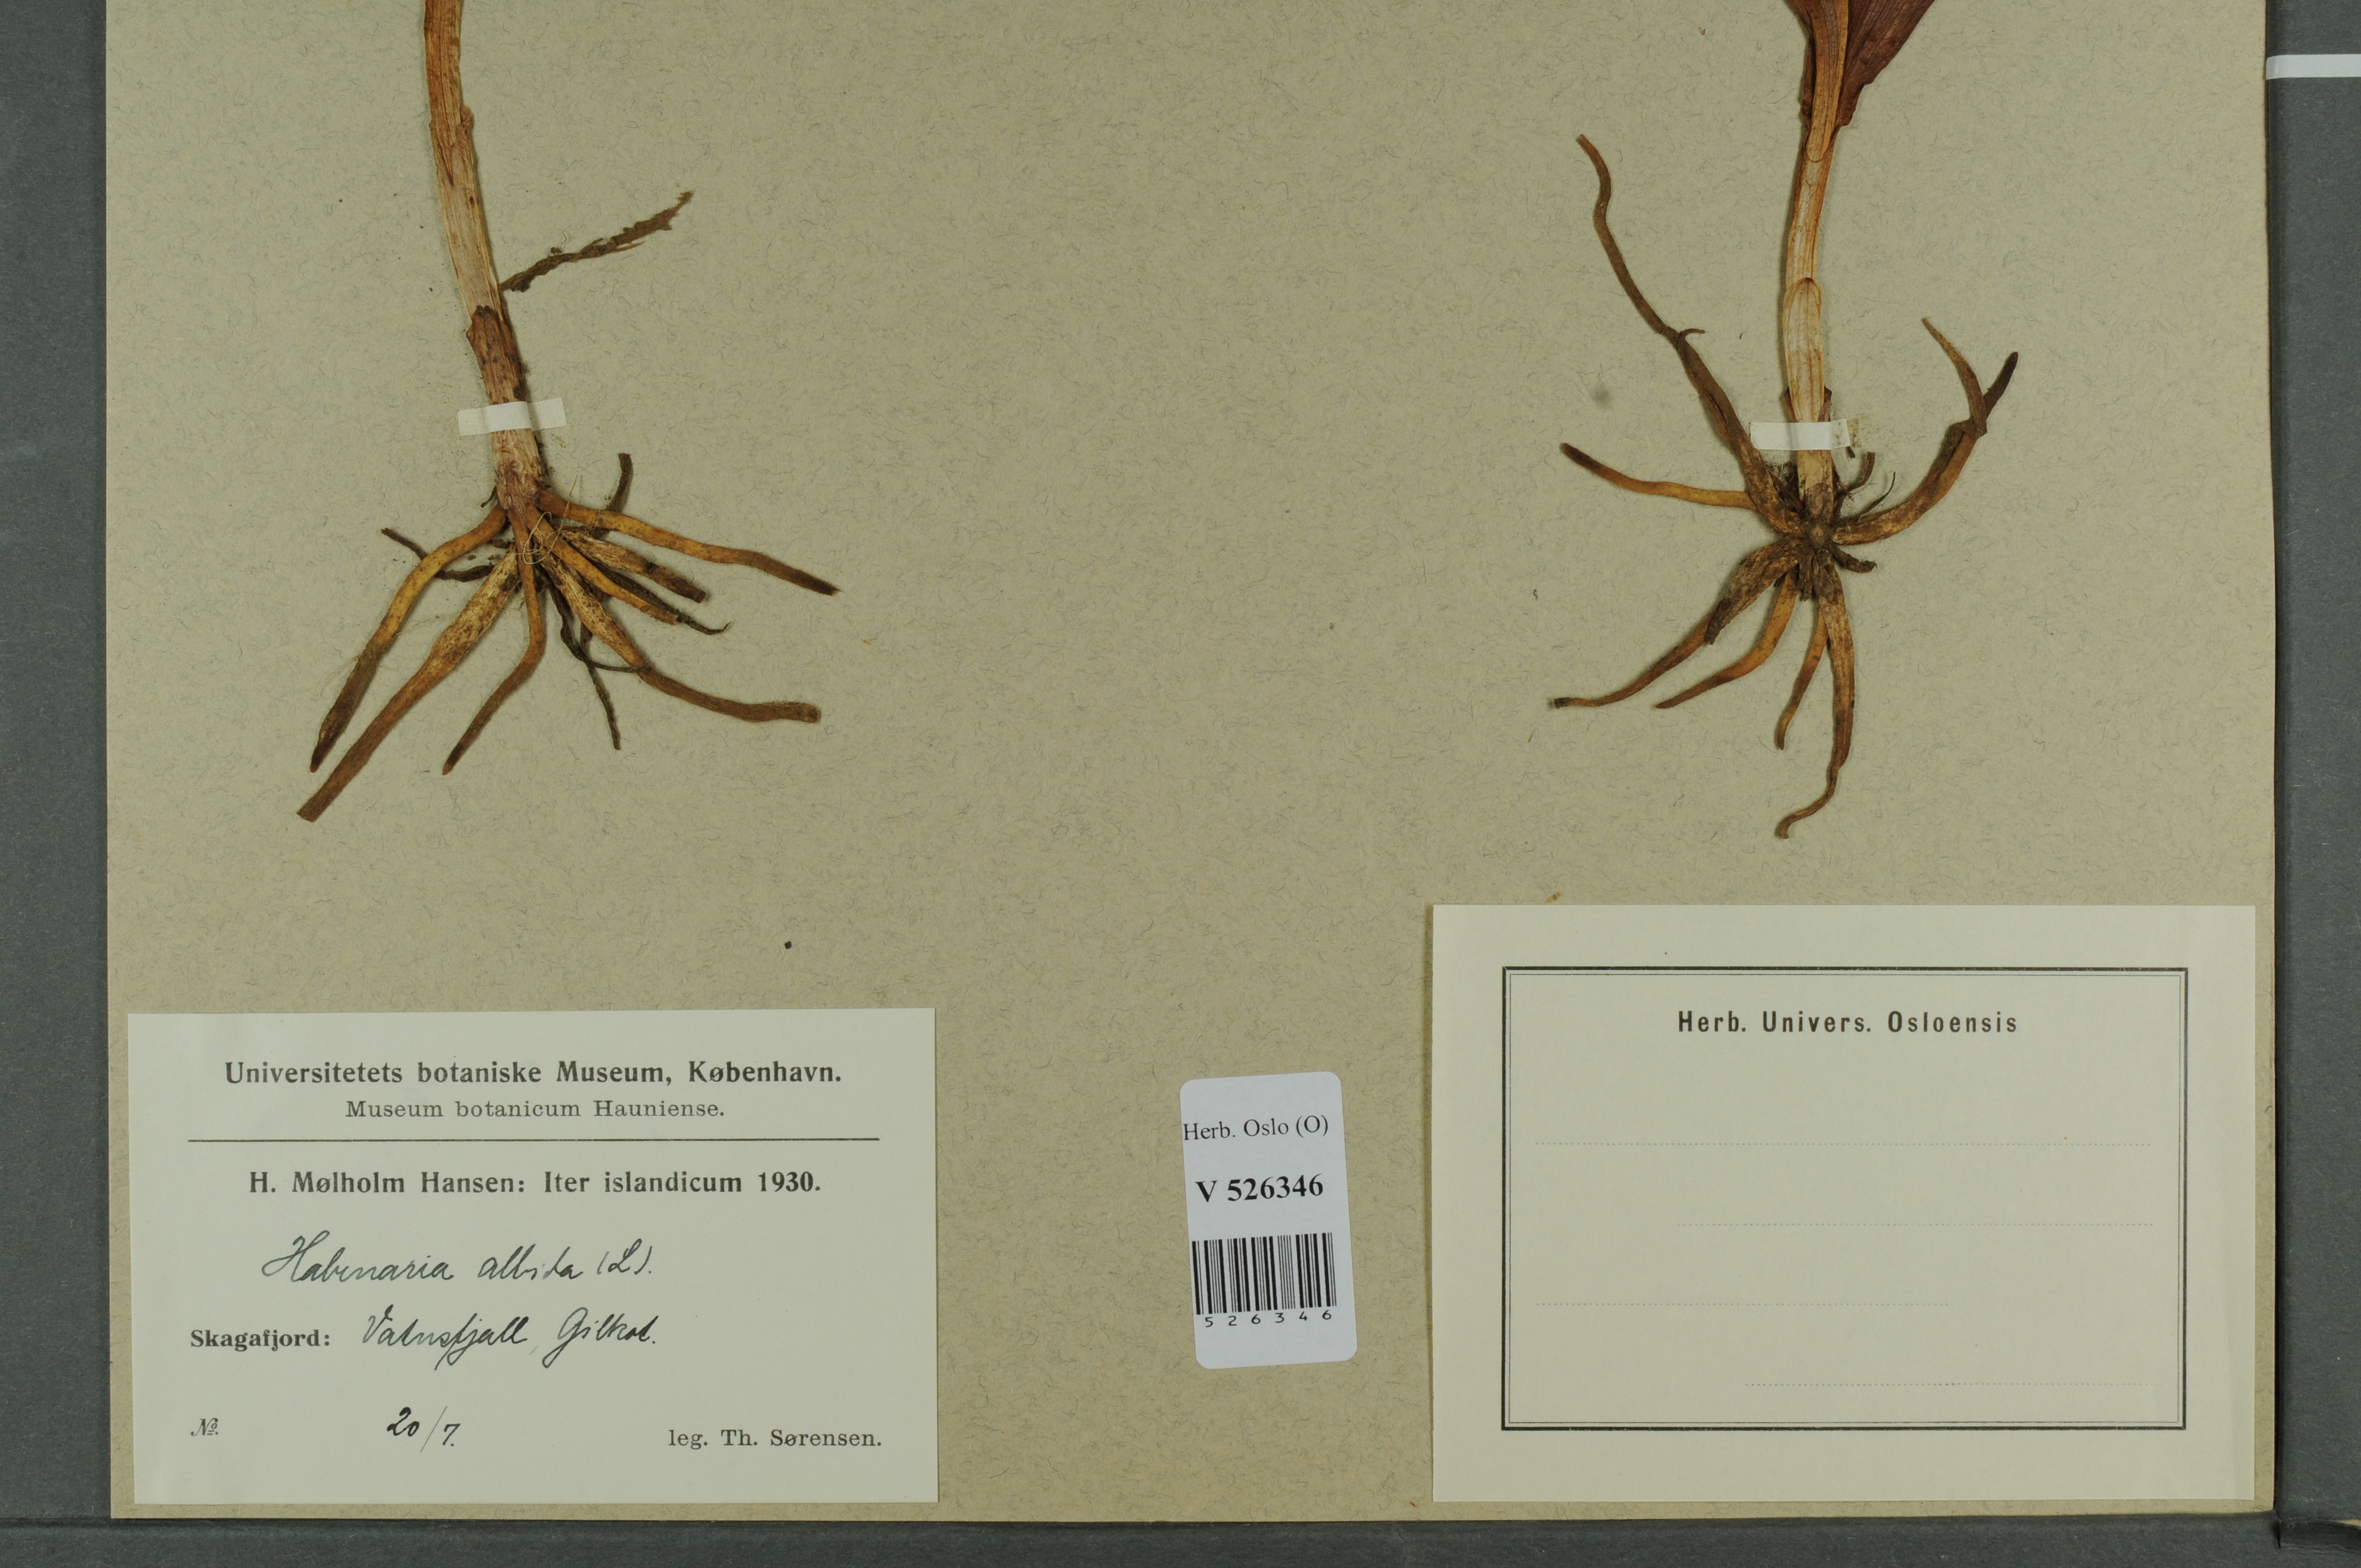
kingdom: Plantae
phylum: Tracheophyta
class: Liliopsida
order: Asparagales
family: Orchidaceae
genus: Pseudorchis
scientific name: Pseudorchis albida
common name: Small-white orchid
